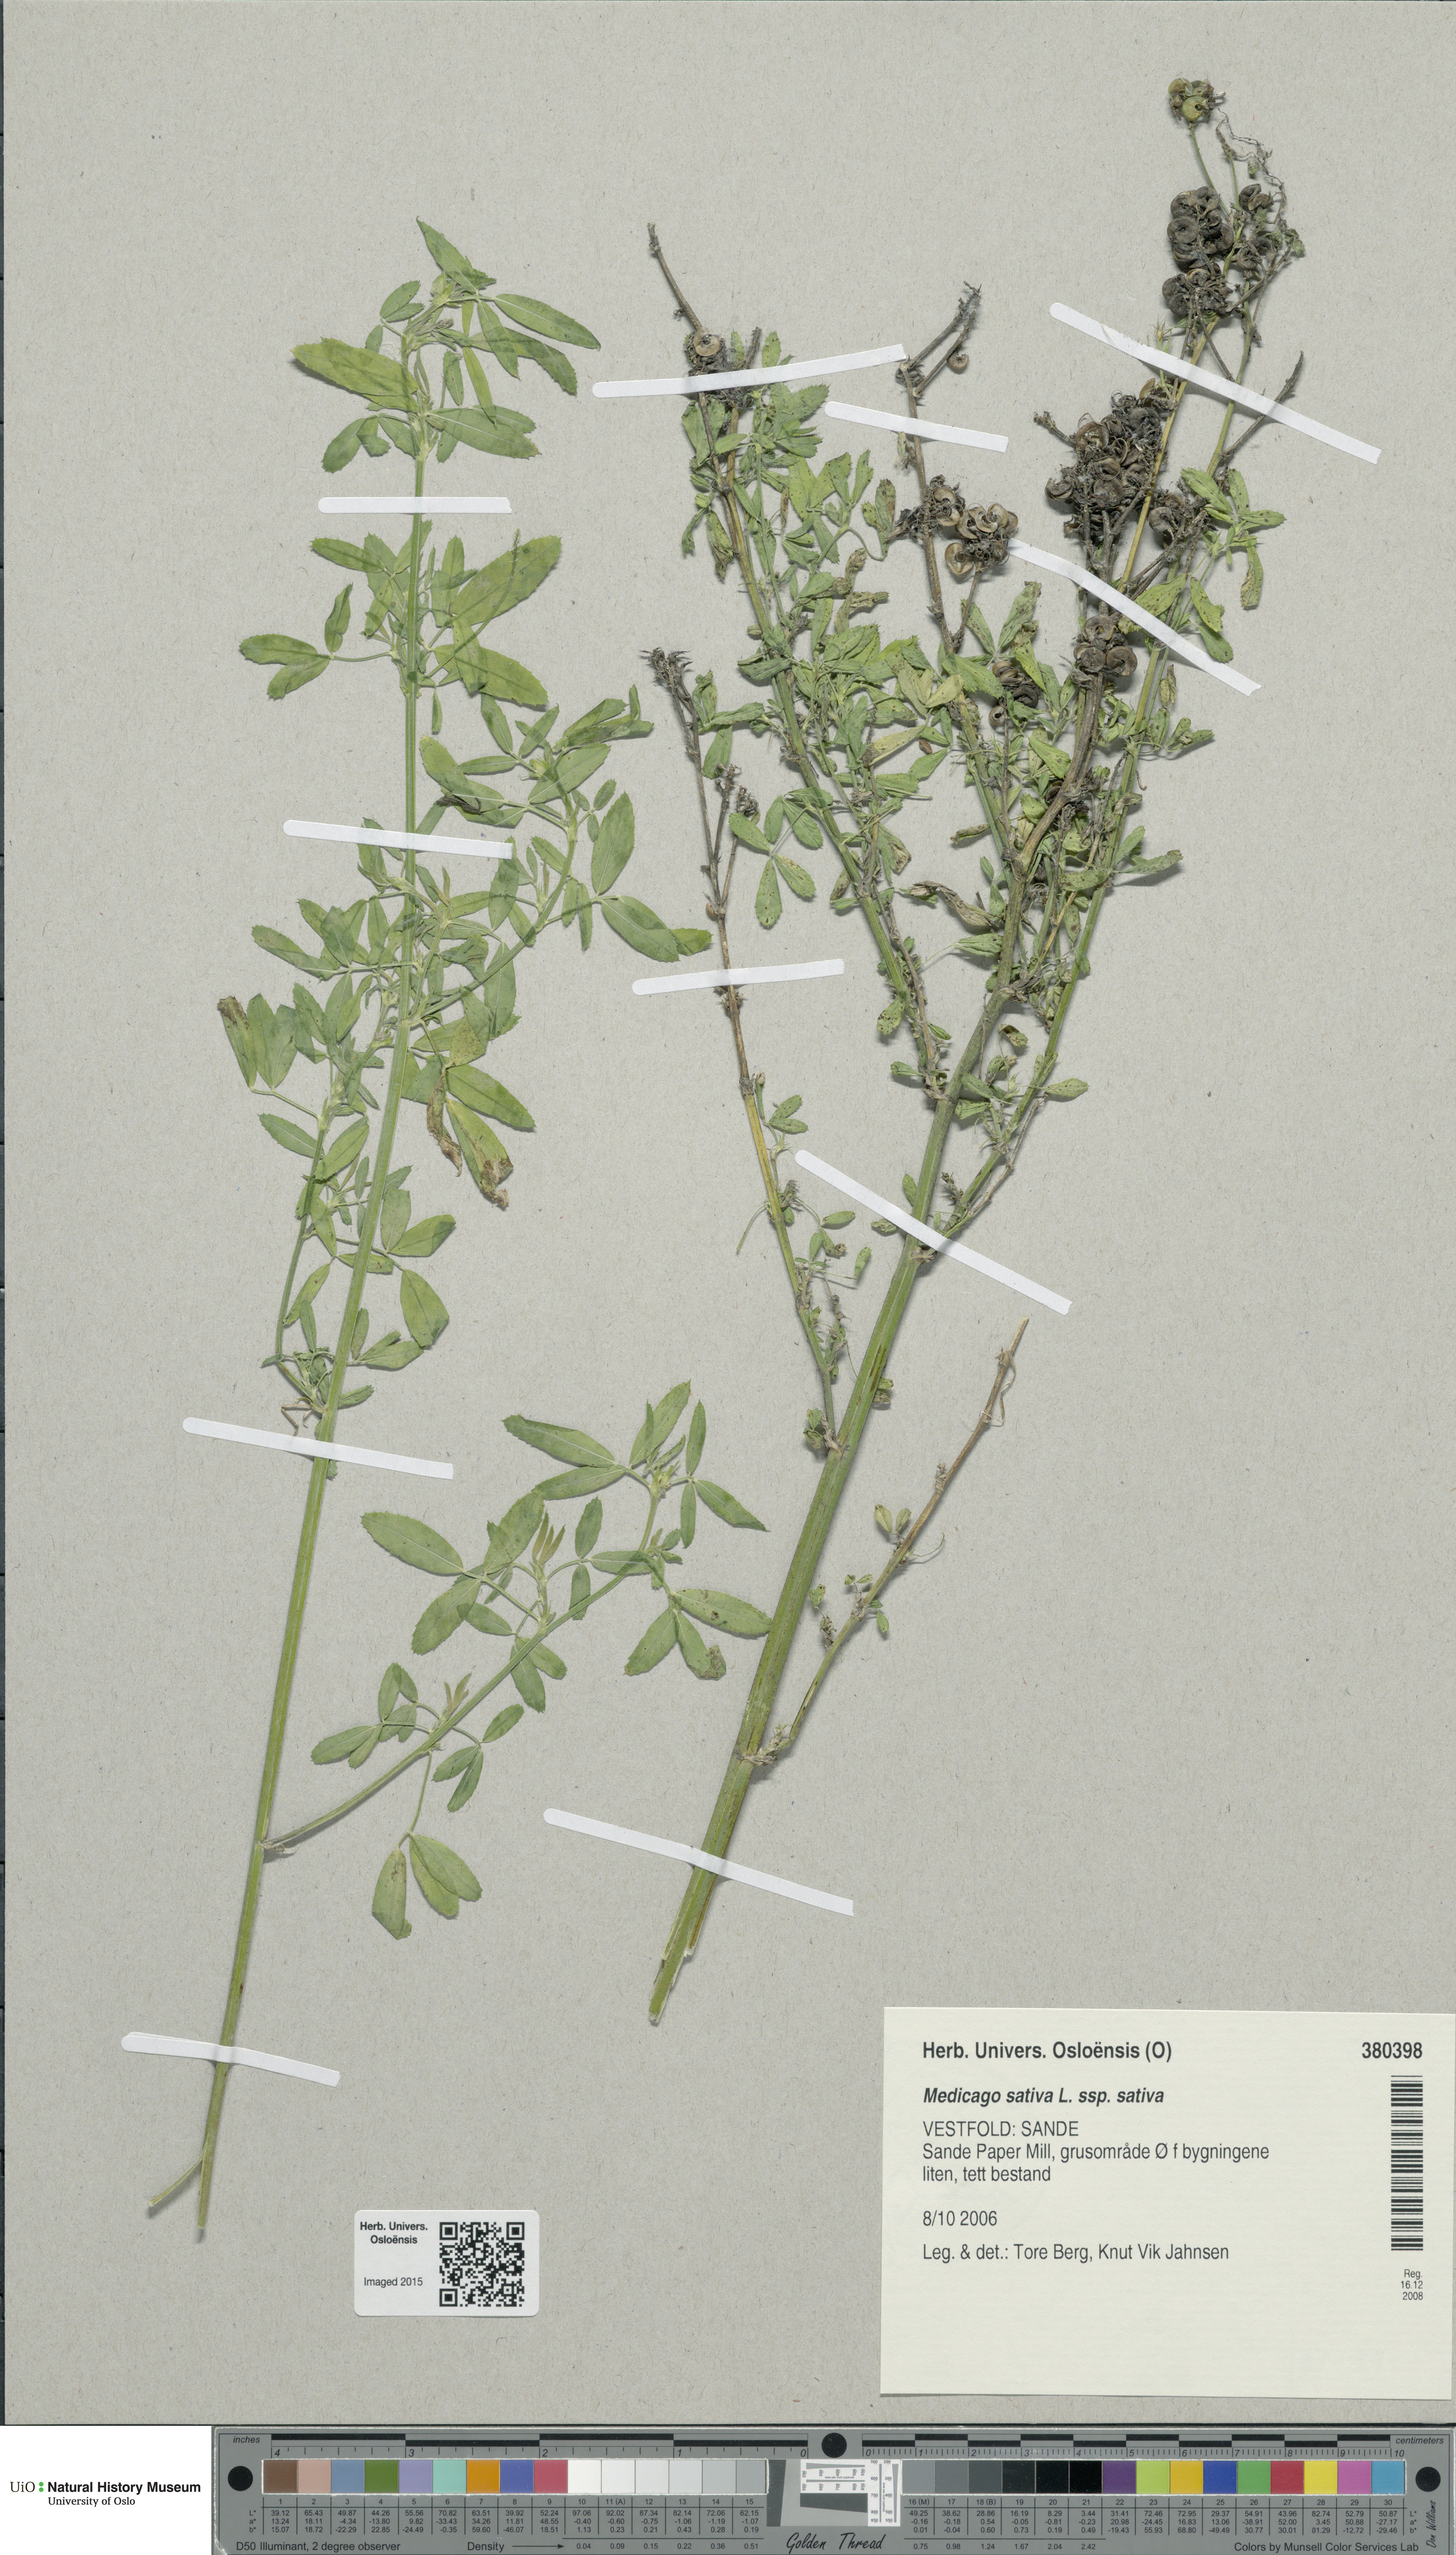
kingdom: Plantae
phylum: Tracheophyta
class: Magnoliopsida
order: Fabales
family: Fabaceae
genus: Medicago
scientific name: Medicago sativa
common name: Alfalfa
